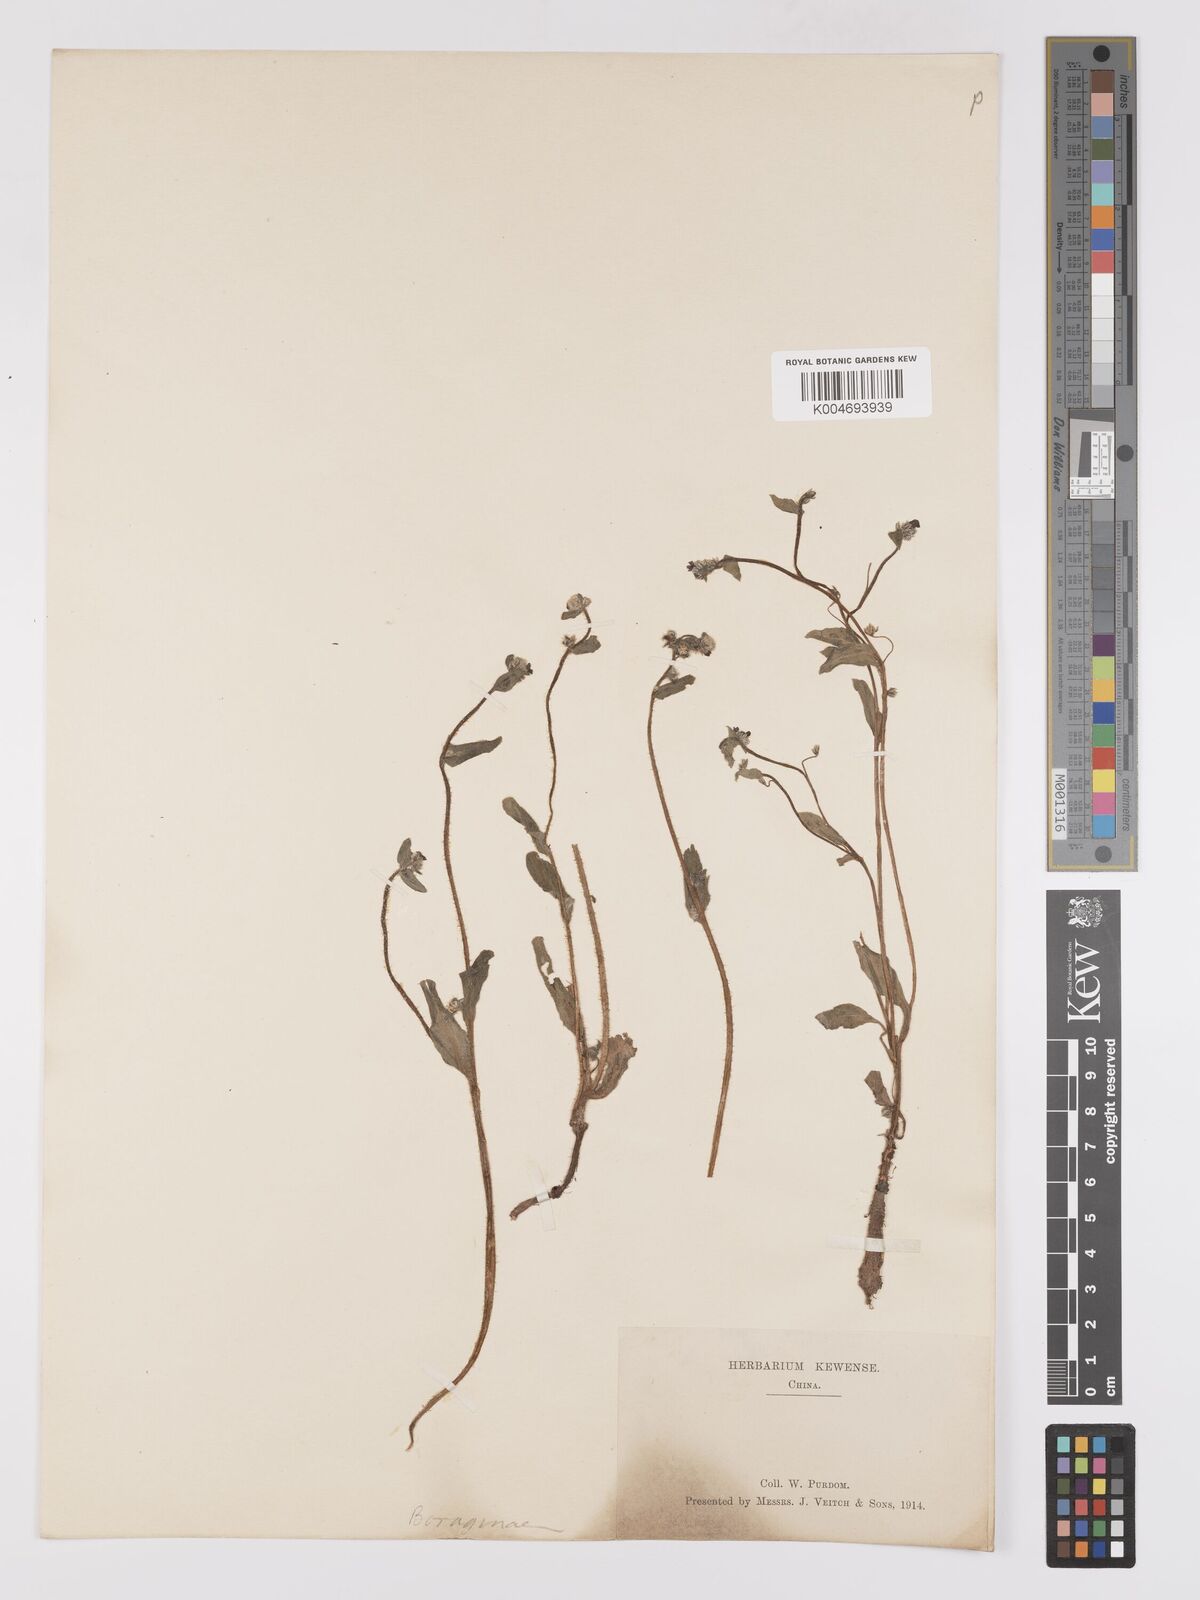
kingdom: Plantae
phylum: Tracheophyta
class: Magnoliopsida
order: Boraginales
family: Boraginaceae
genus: Microula
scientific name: Microula
